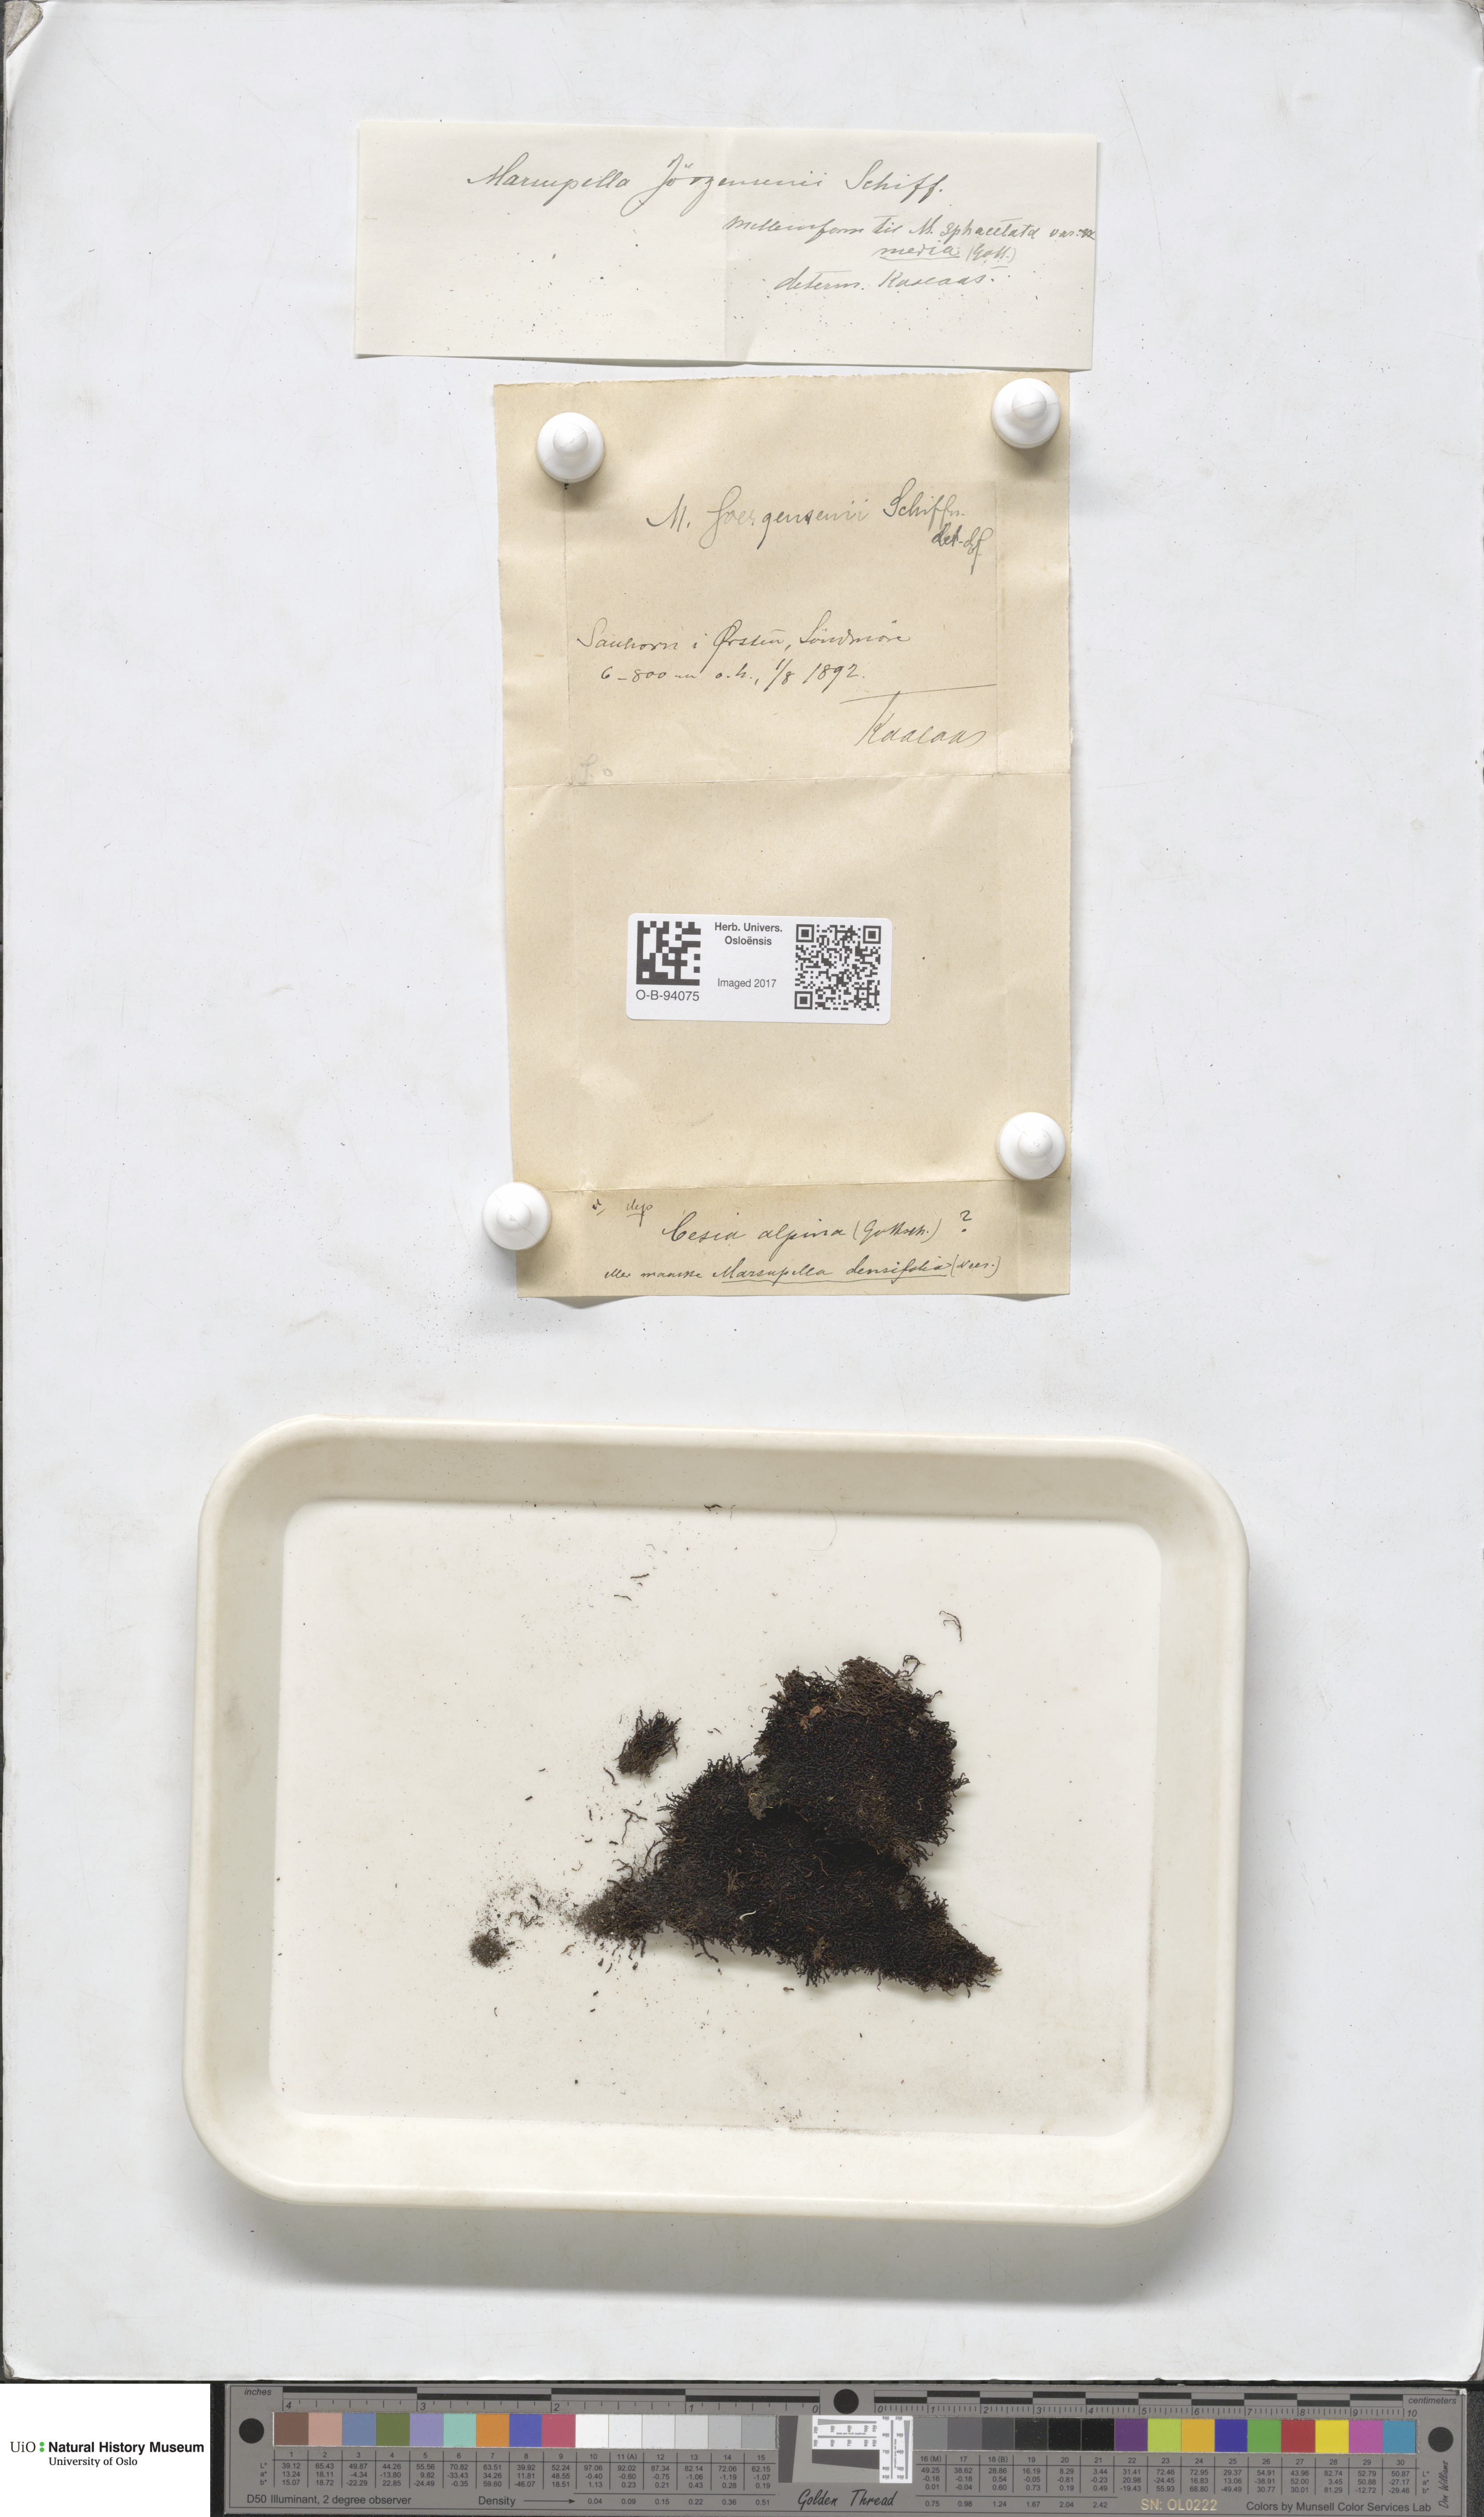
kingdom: Plantae
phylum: Marchantiophyta
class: Jungermanniopsida
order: Jungermanniales
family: Gymnomitriaceae
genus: Marsupella
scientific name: Marsupella sphacelata
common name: Speckled rustwort
